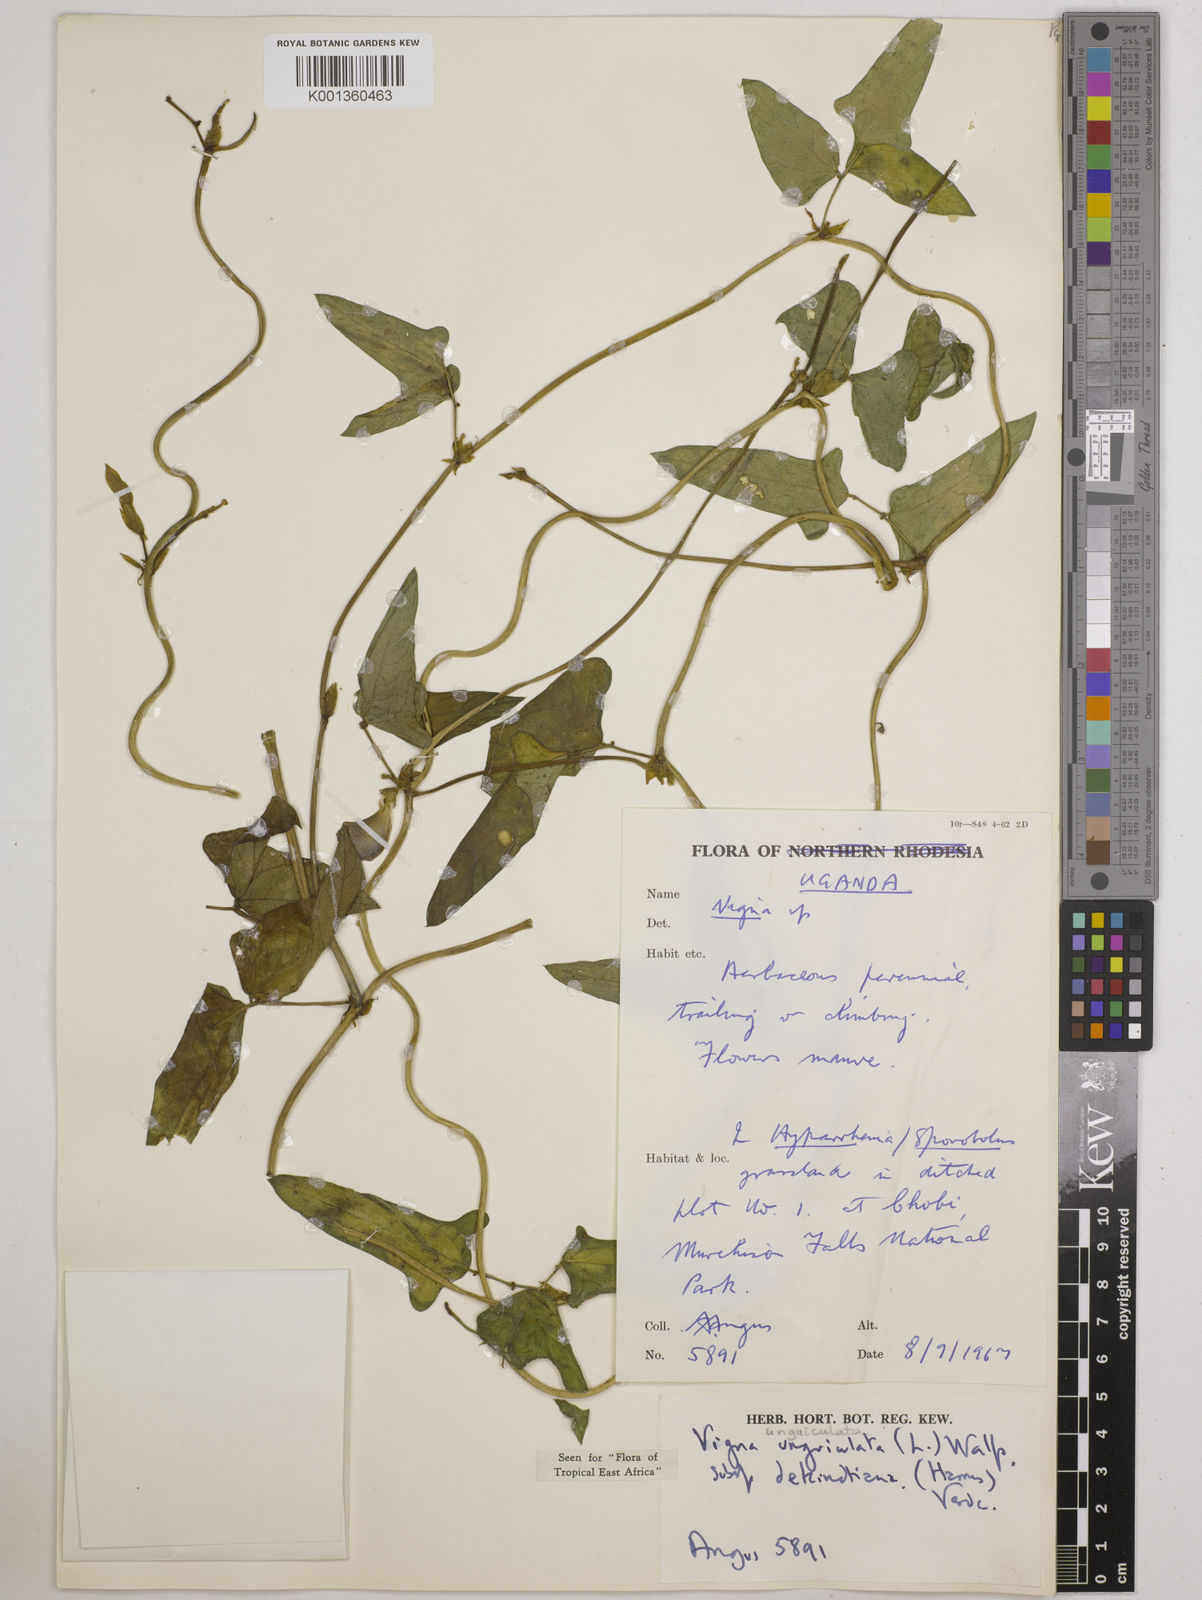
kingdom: Plantae
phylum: Tracheophyta
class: Magnoliopsida
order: Fabales
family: Fabaceae
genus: Vigna
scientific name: Vigna
